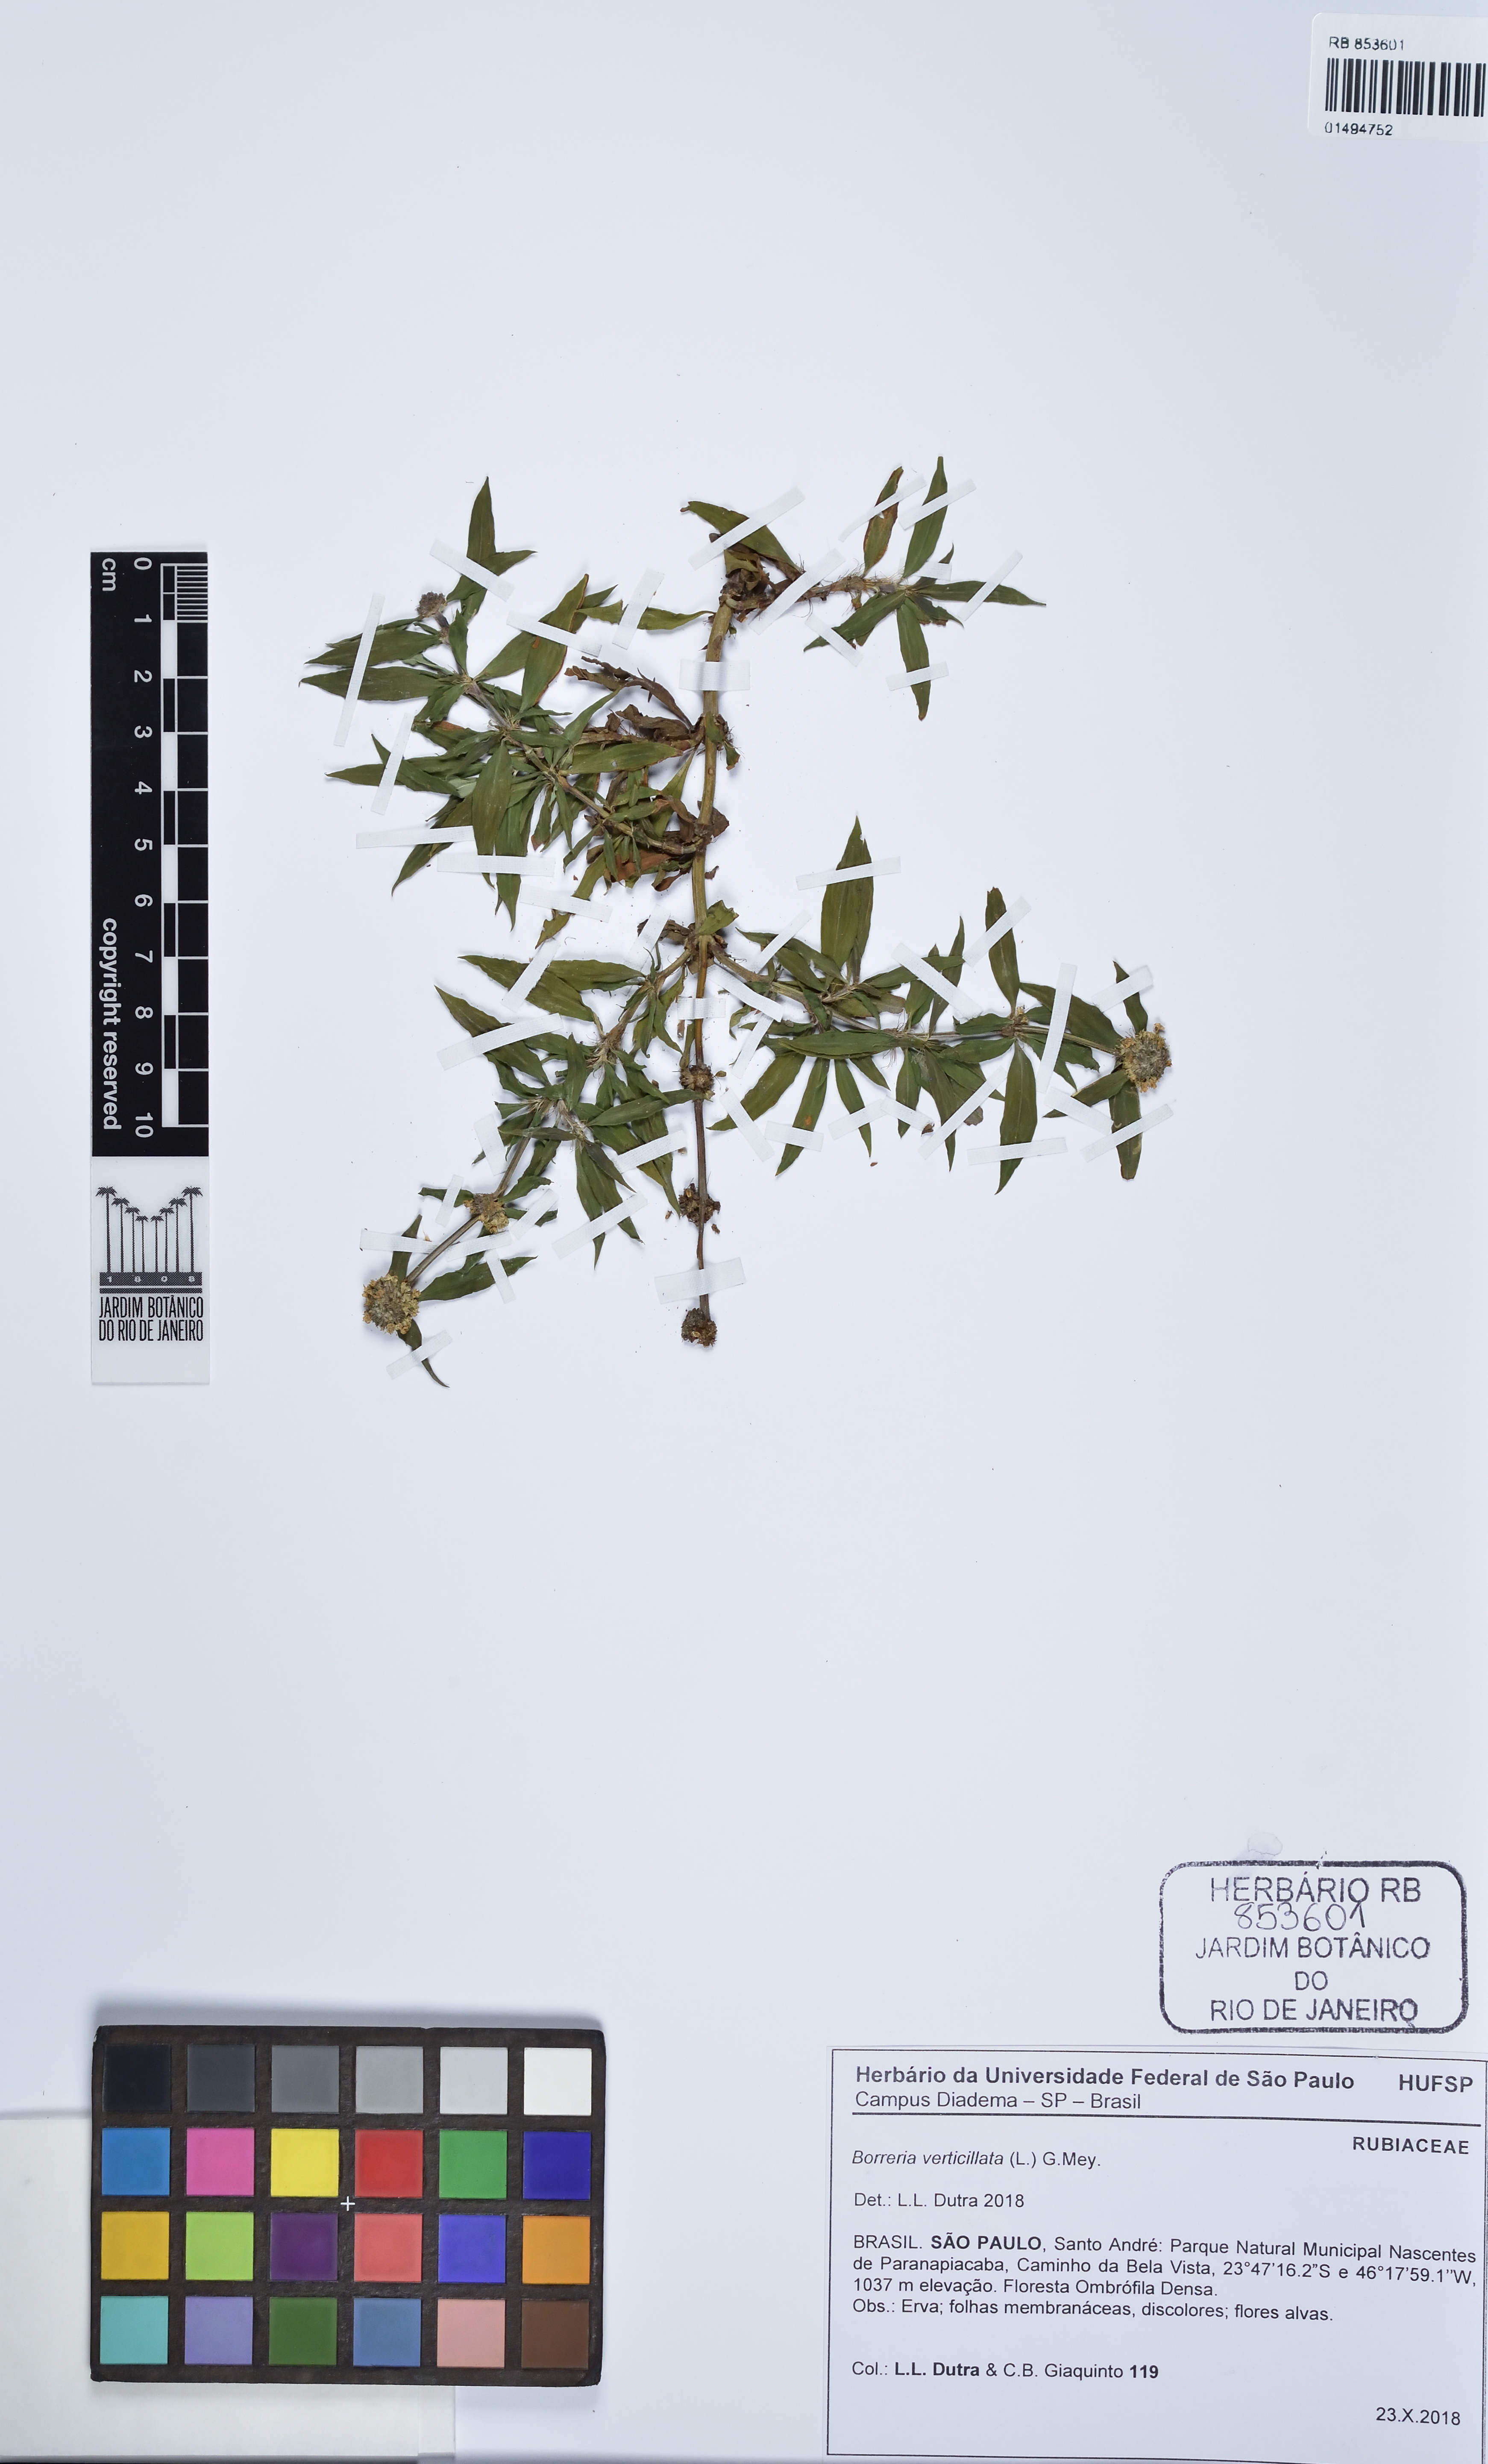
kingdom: Plantae
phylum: Tracheophyta
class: Magnoliopsida
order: Gentianales
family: Rubiaceae
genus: Spermacoce
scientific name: Spermacoce verticillata
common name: Shrubby false buttonweed
